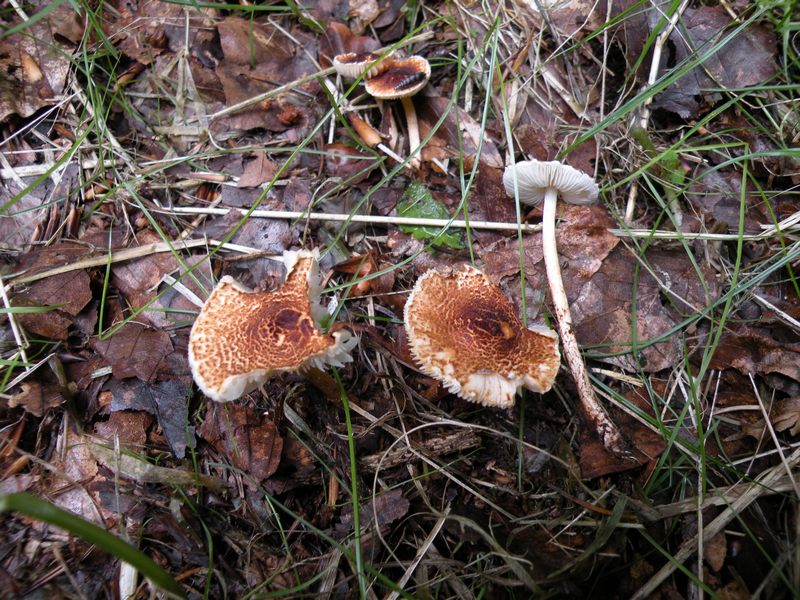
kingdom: Fungi
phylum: Basidiomycota
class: Agaricomycetes
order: Agaricales
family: Agaricaceae
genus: Lepiota
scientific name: Lepiota castanea
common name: kastaniebrun parasolhat
